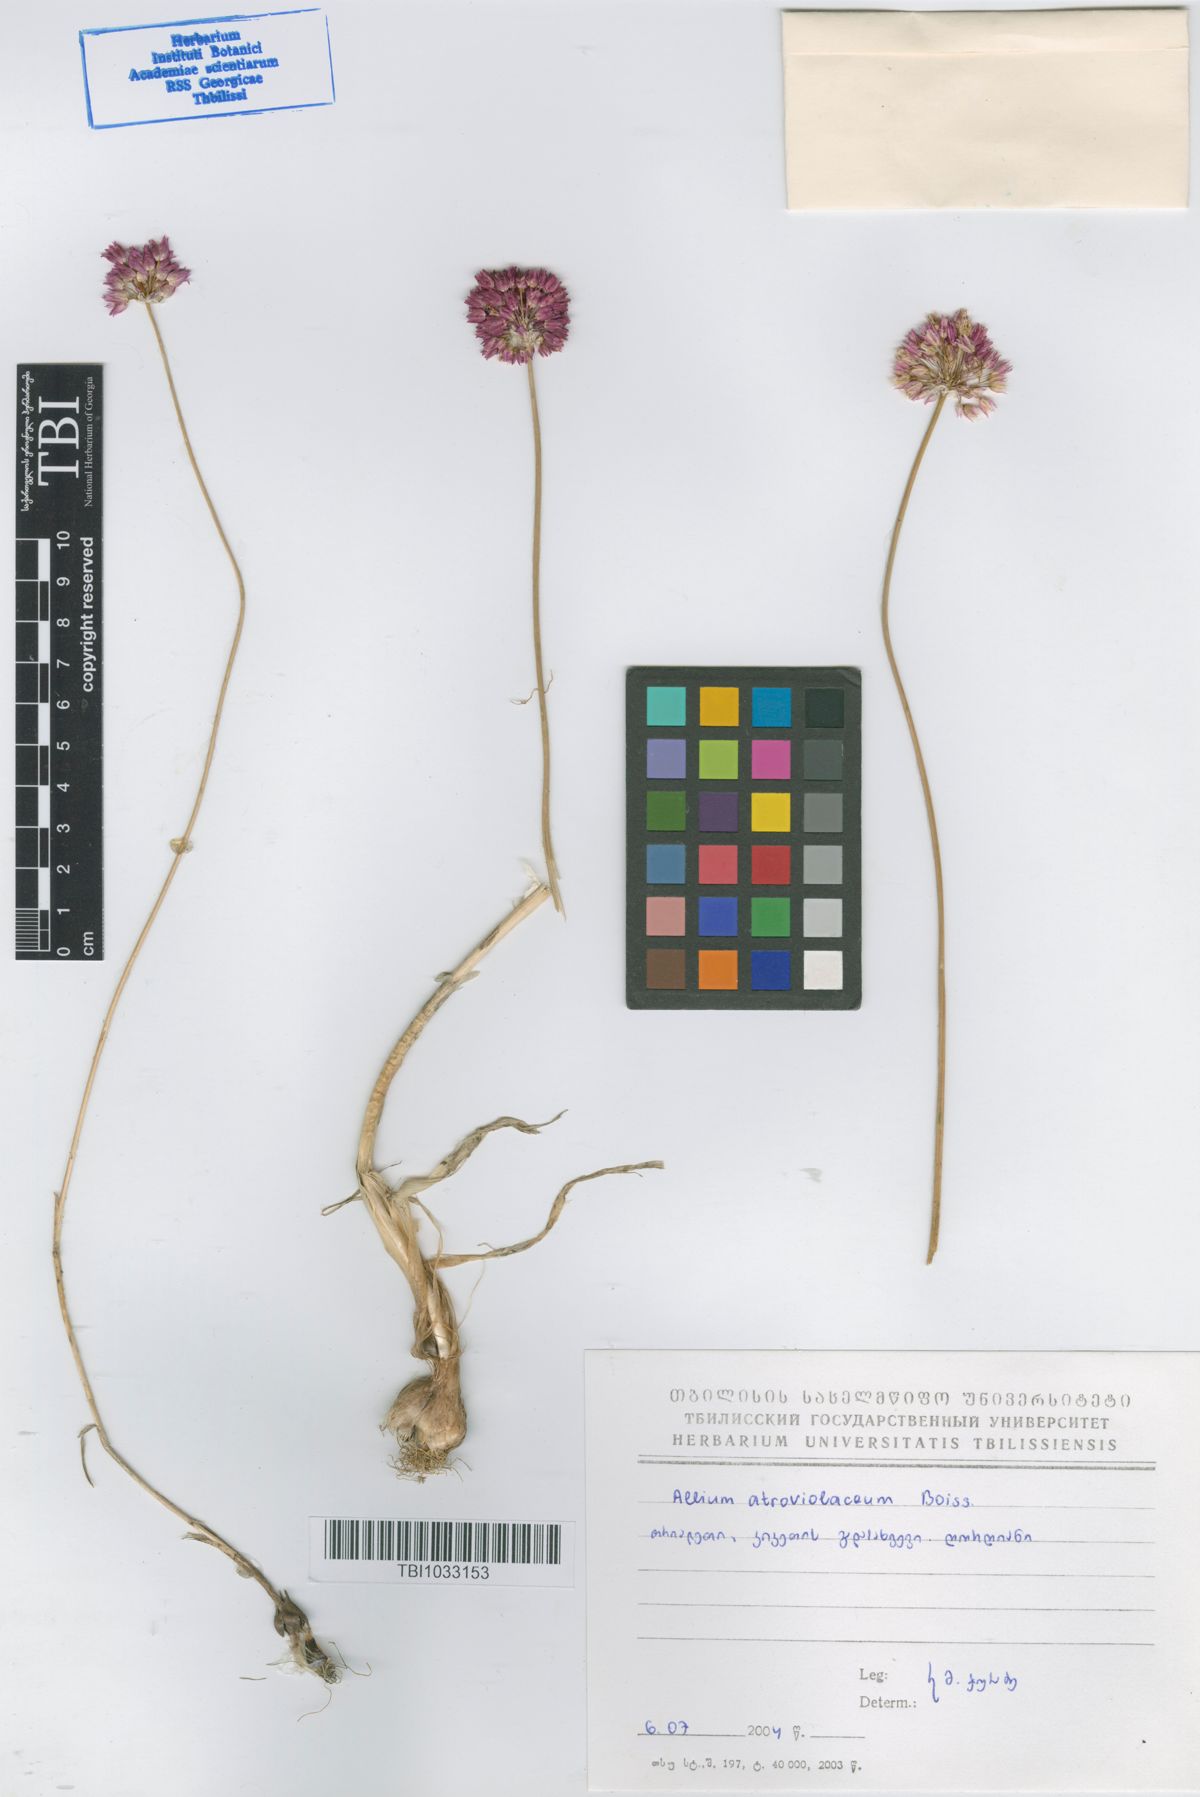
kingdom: Plantae
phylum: Tracheophyta
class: Liliopsida
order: Asparagales
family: Amaryllidaceae
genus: Allium
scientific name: Allium atroviolaceum
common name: Broadleaf wild leek
